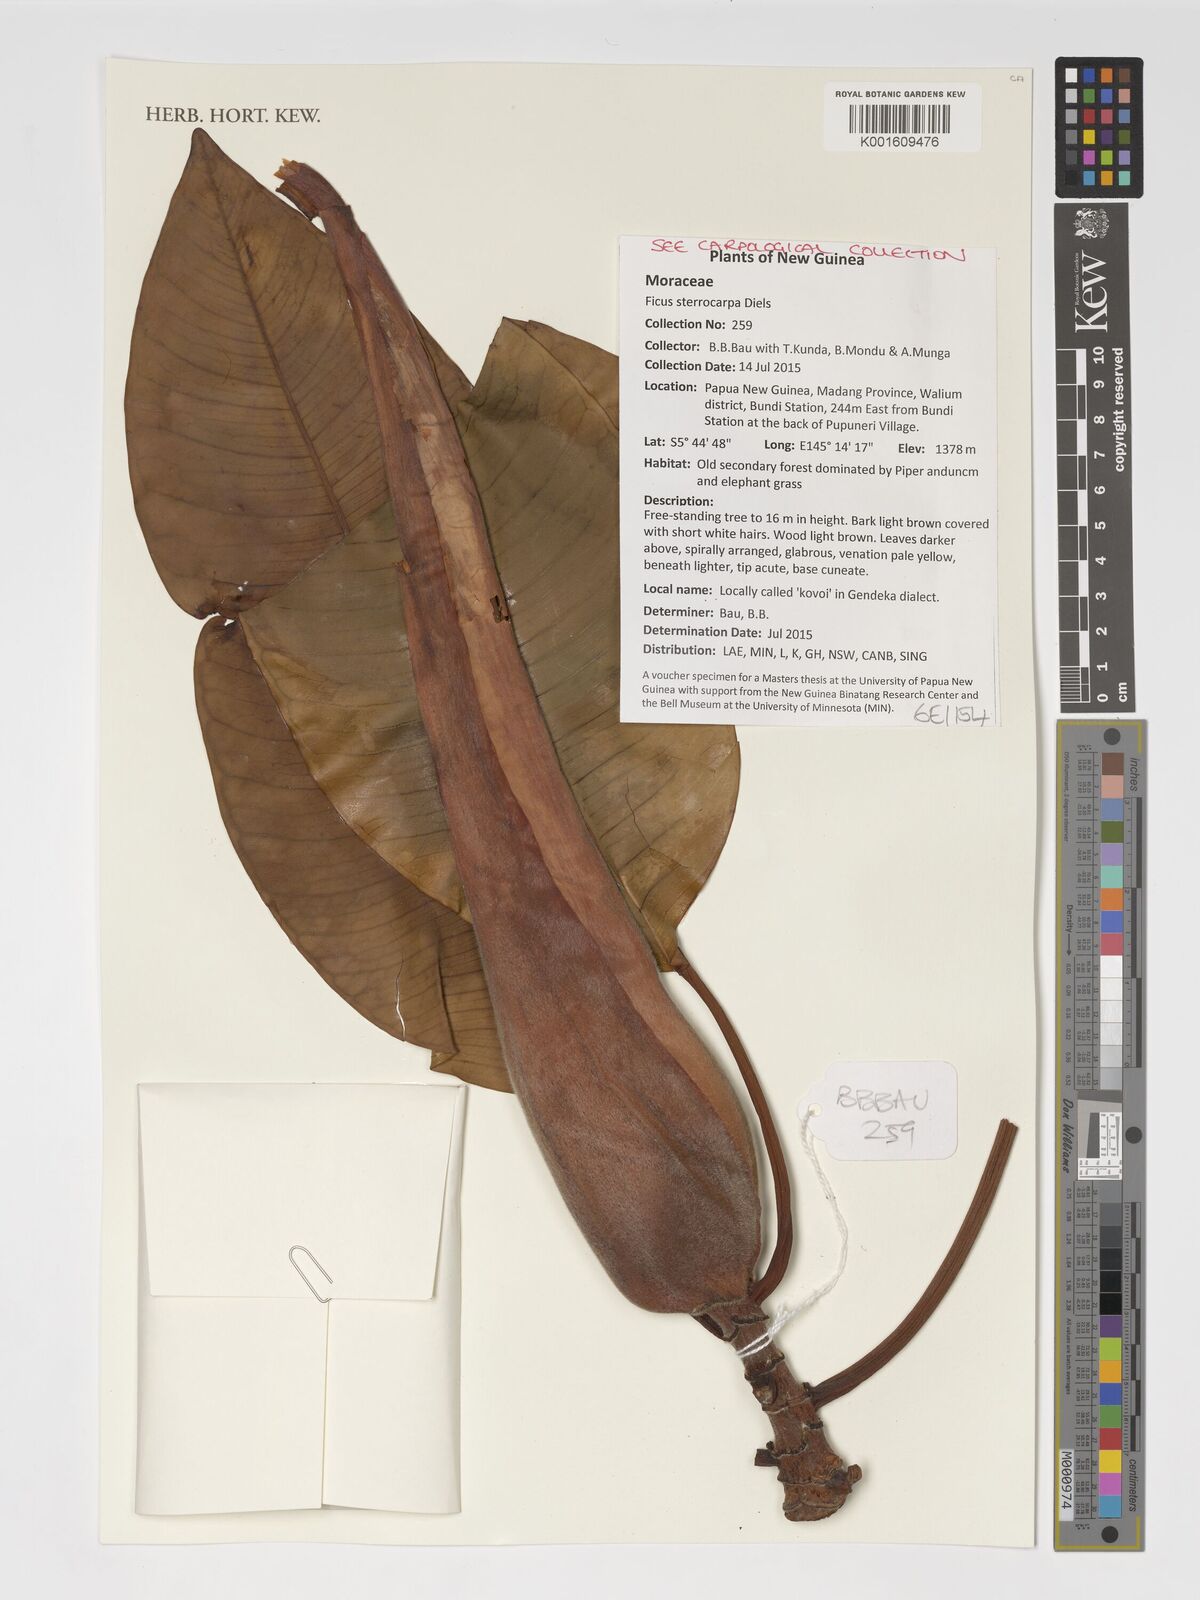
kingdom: Plantae
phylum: Tracheophyta
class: Magnoliopsida
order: Rosales
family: Moraceae
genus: Ficus
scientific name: Ficus hesperidiiformis
